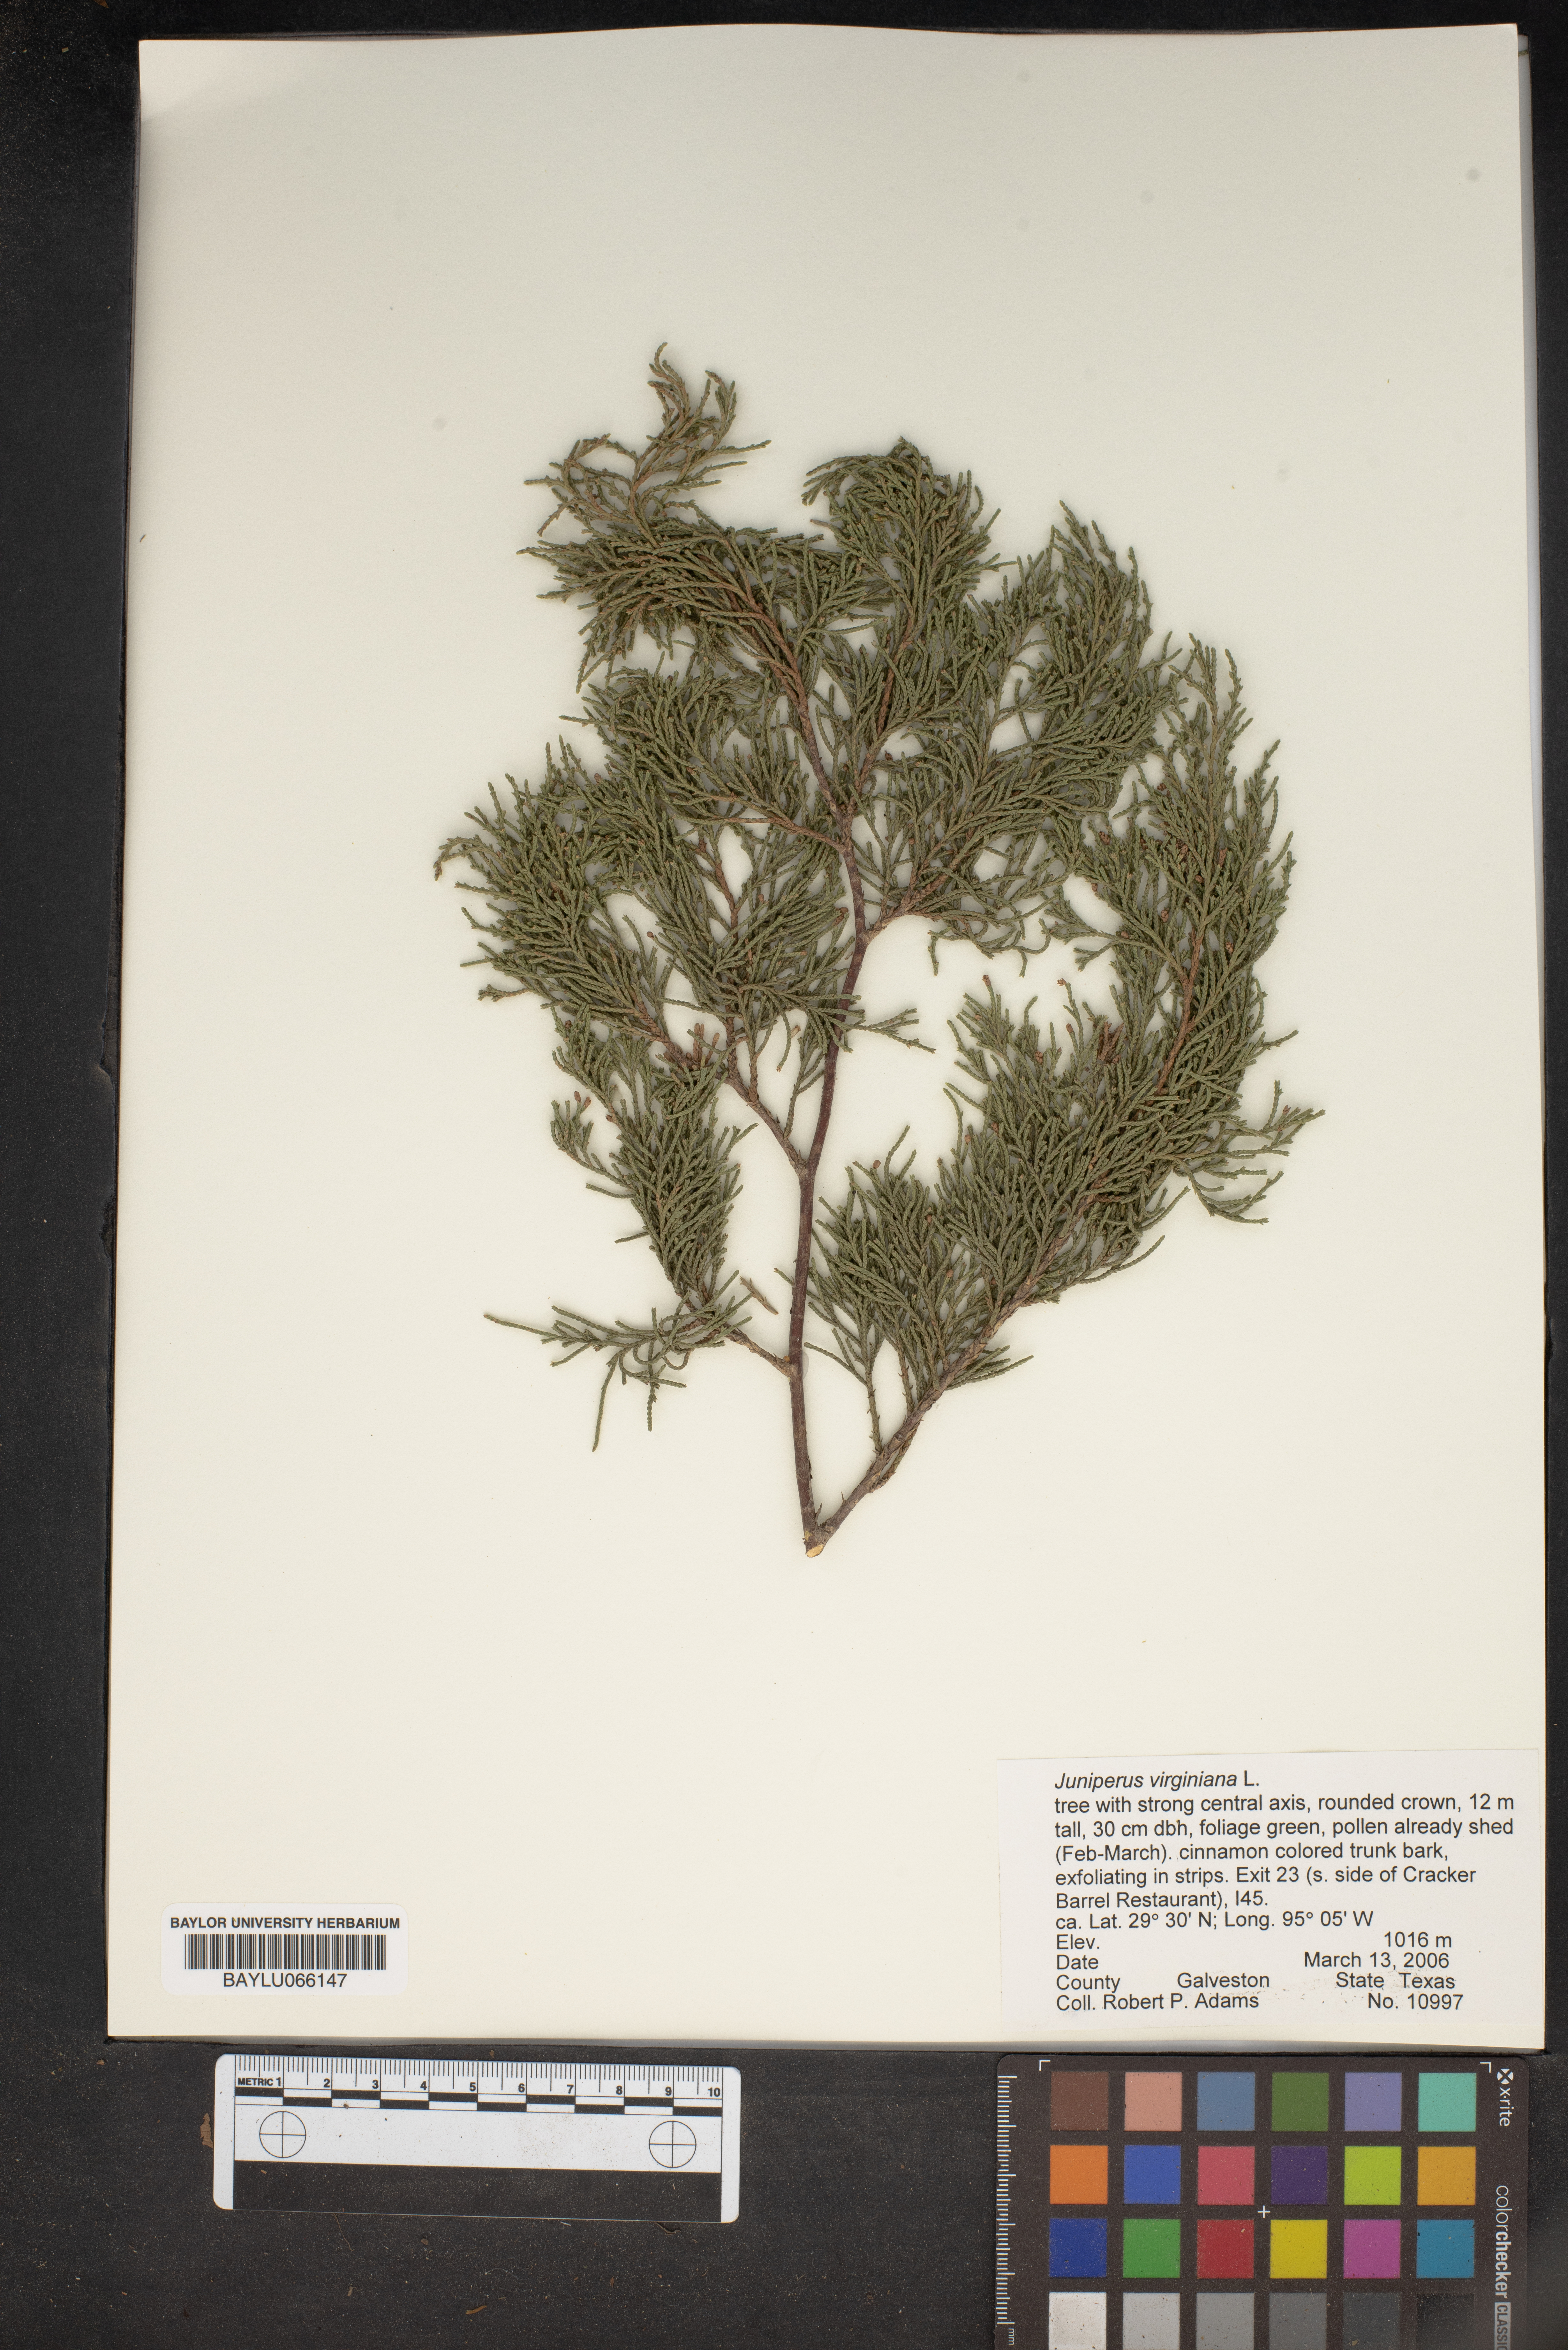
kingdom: Plantae
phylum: Tracheophyta
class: Pinopsida
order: Pinales
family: Cupressaceae
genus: Juniperus
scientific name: Juniperus virginiana
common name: Red juniper
